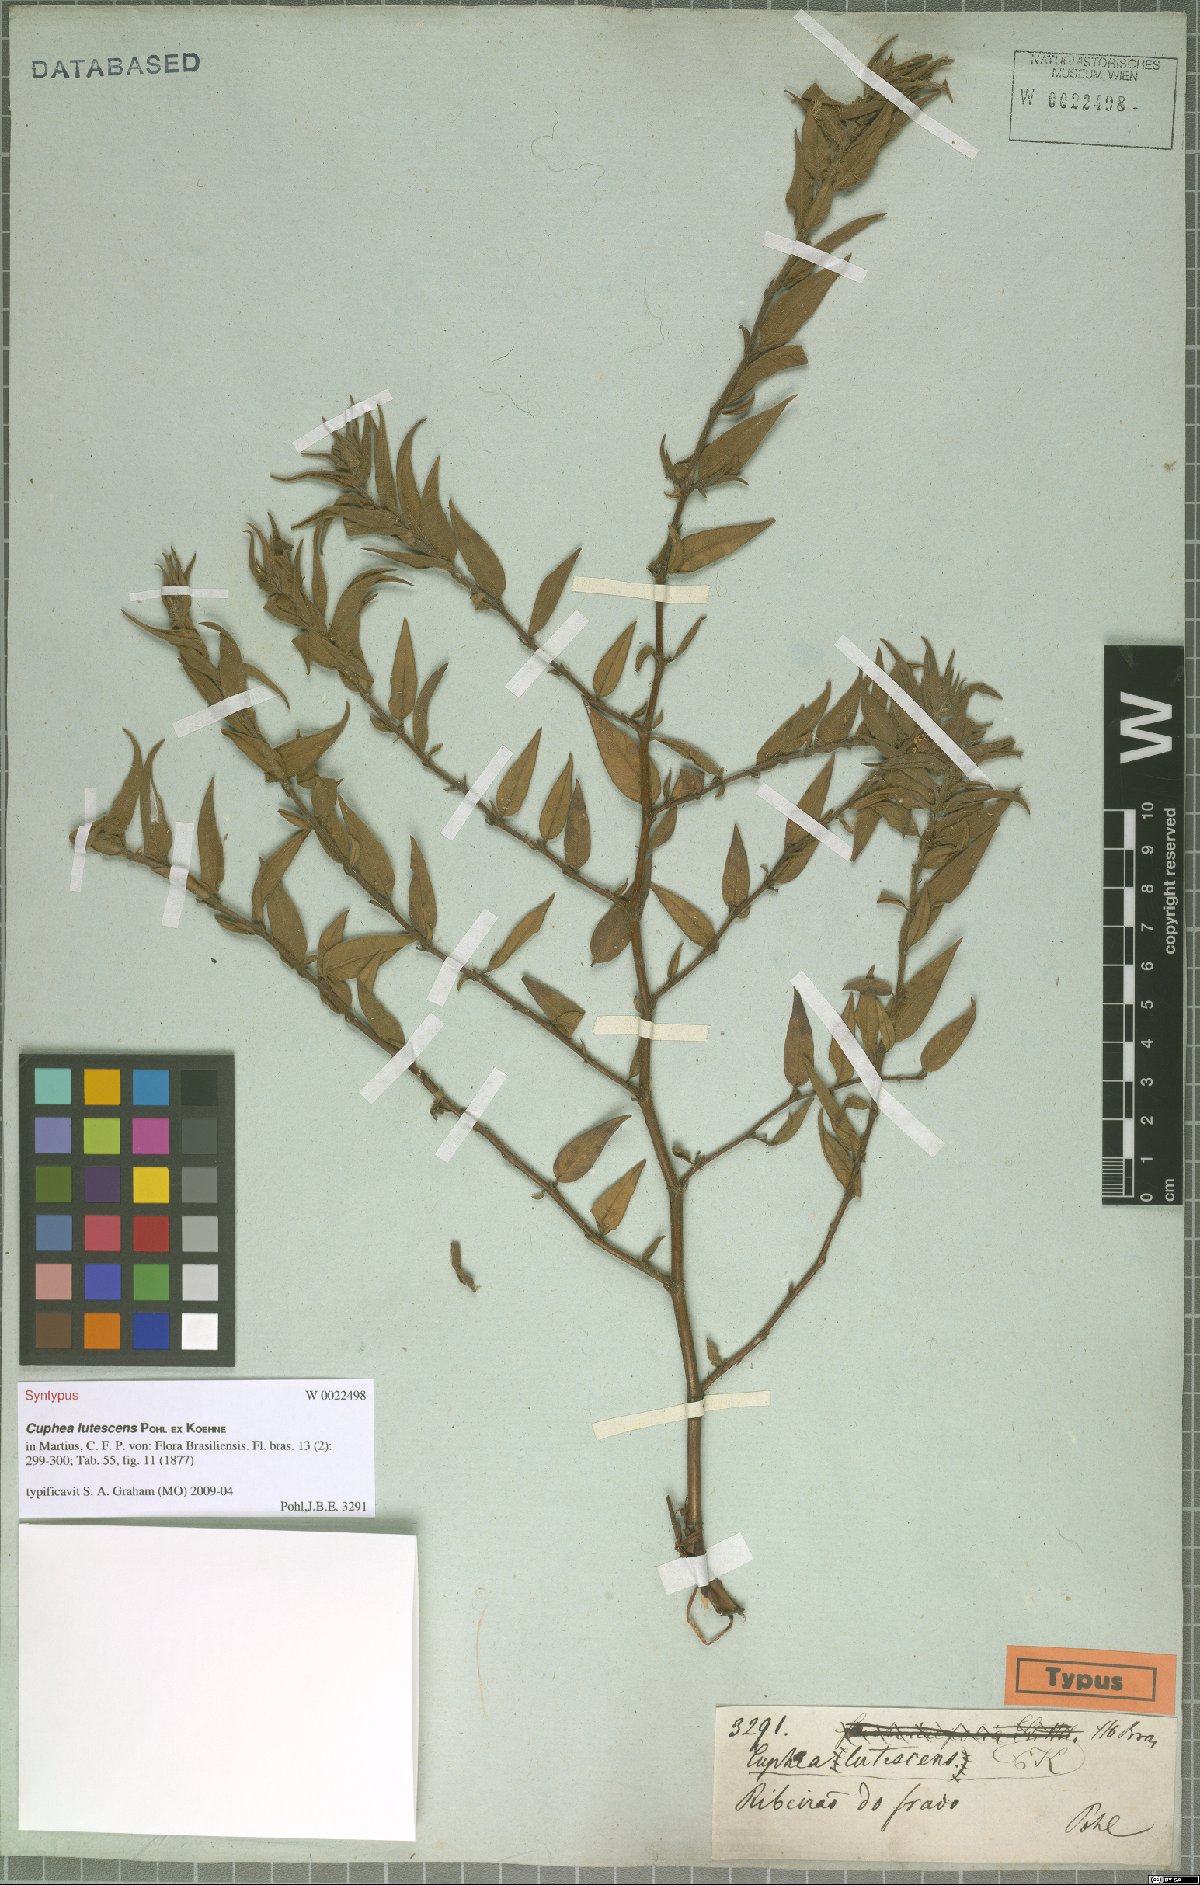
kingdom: Plantae
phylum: Tracheophyta
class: Magnoliopsida
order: Myrtales
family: Lythraceae
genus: Cuphea
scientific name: Cuphea lutescens
